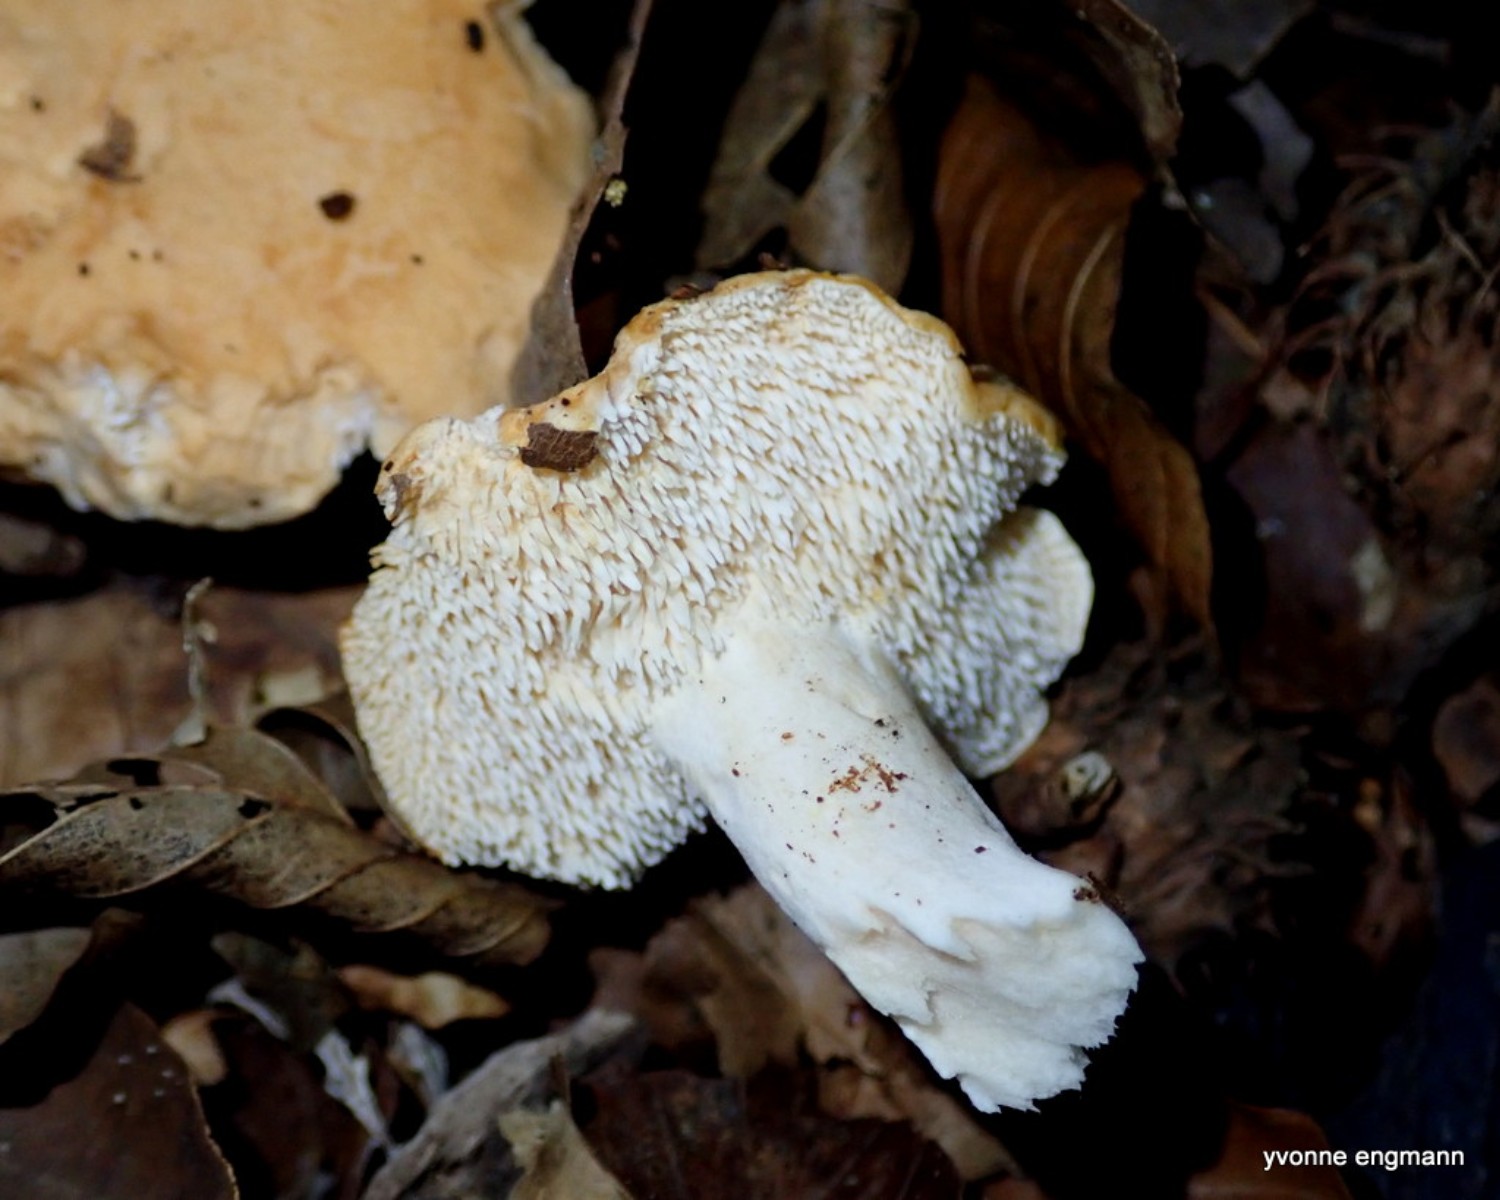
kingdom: Fungi
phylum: Basidiomycota
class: Agaricomycetes
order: Cantharellales
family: Hydnaceae
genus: Hydnum
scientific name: Hydnum
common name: pigsvamp
